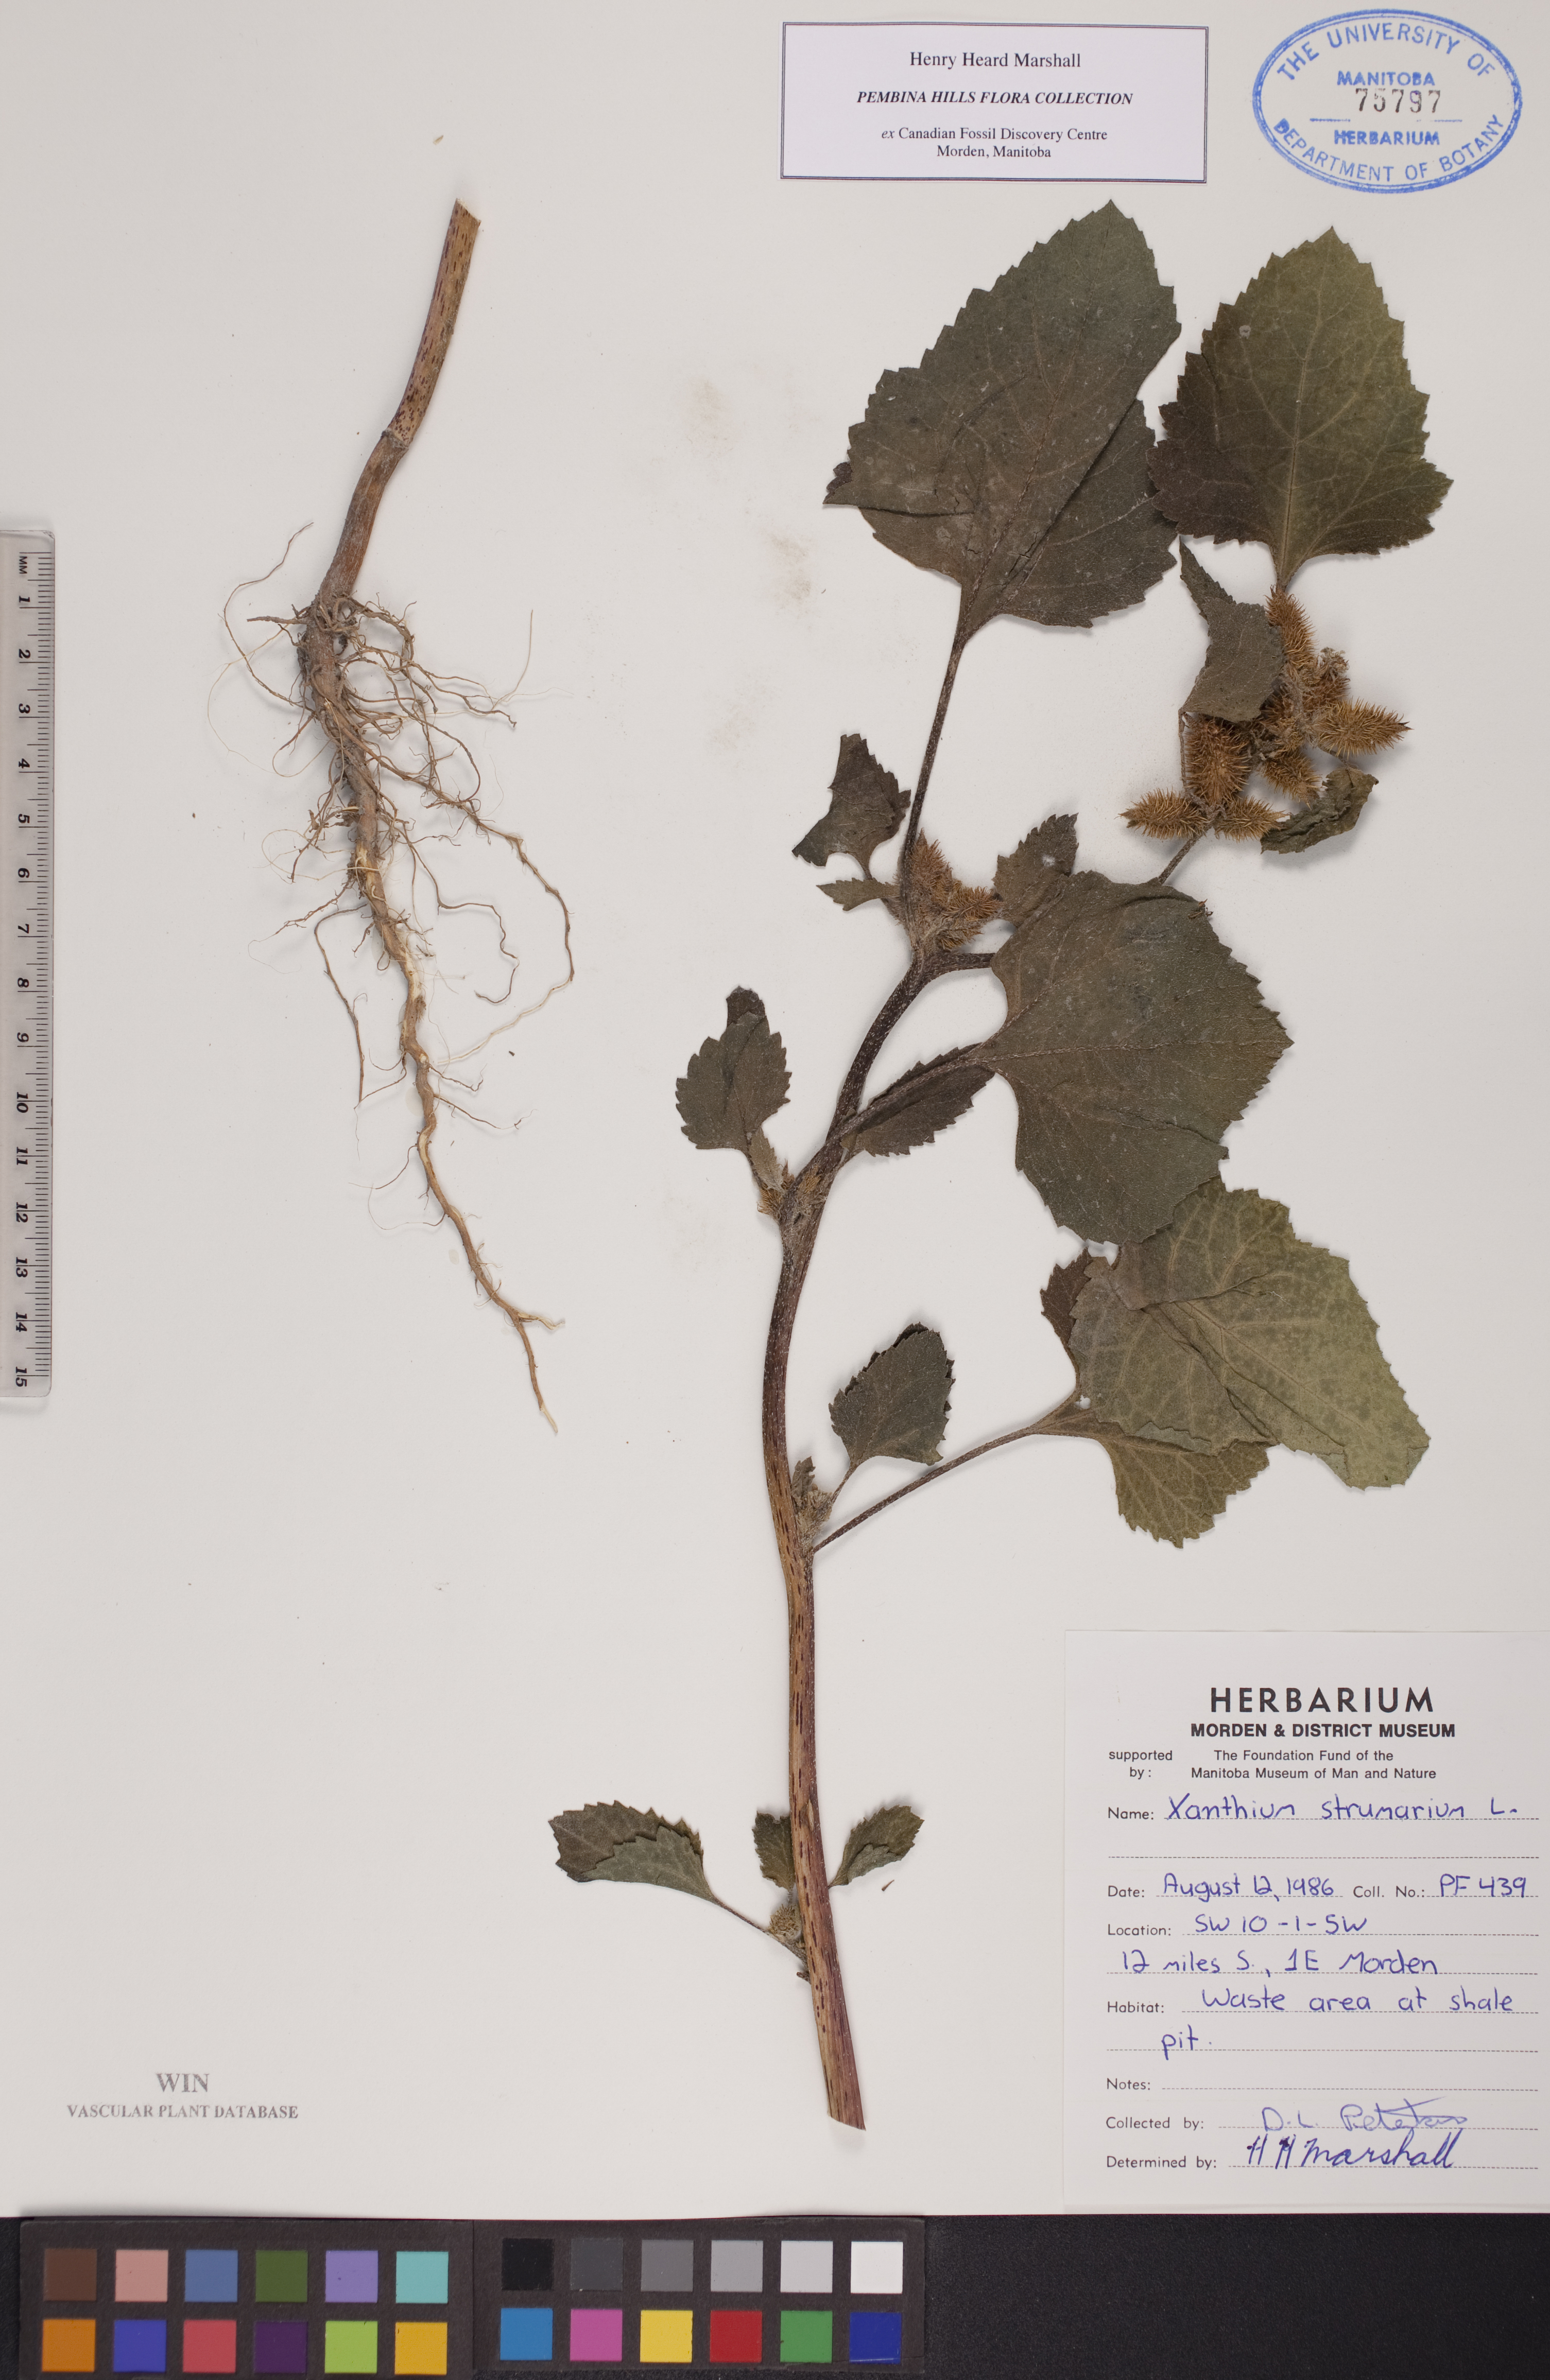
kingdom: Plantae
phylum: Tracheophyta
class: Magnoliopsida
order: Asterales
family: Asteraceae
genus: Xanthium
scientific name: Xanthium strumarium
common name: Rough cocklebur
